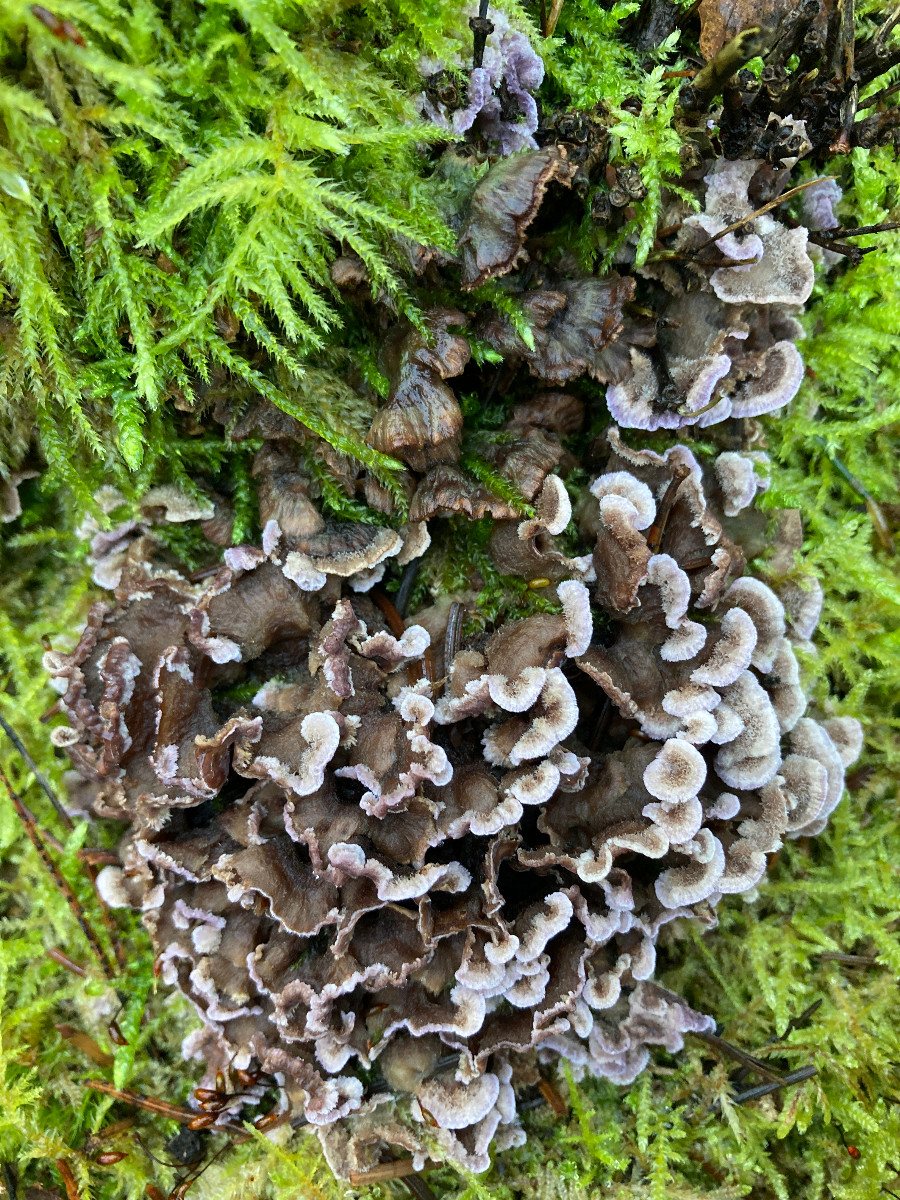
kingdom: Fungi
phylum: Basidiomycota
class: Agaricomycetes
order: Agaricales
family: Cyphellaceae
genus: Chondrostereum
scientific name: Chondrostereum purpureum
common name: purpurlædersvamp
